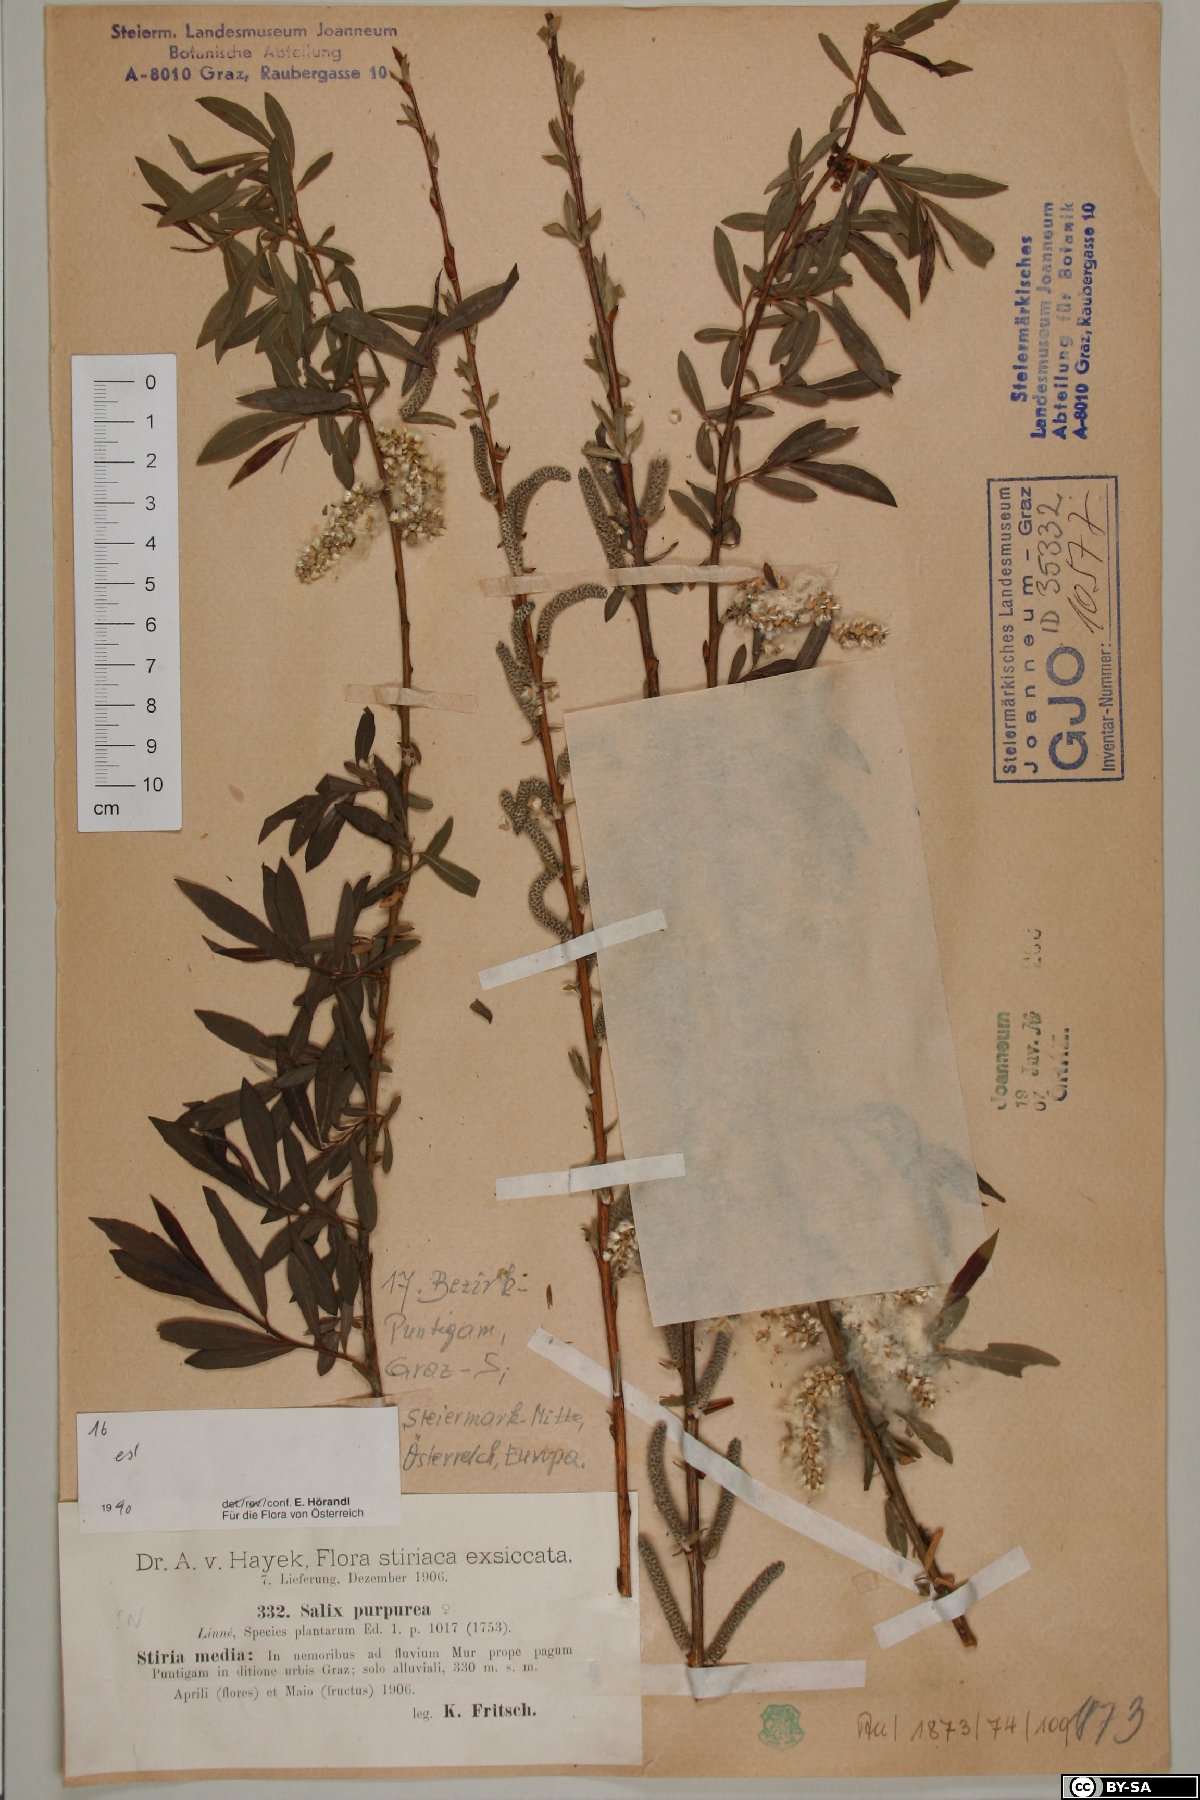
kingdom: Plantae
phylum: Tracheophyta
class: Magnoliopsida
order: Malpighiales
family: Salicaceae
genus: Salix
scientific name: Salix purpurea
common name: Purple willow
